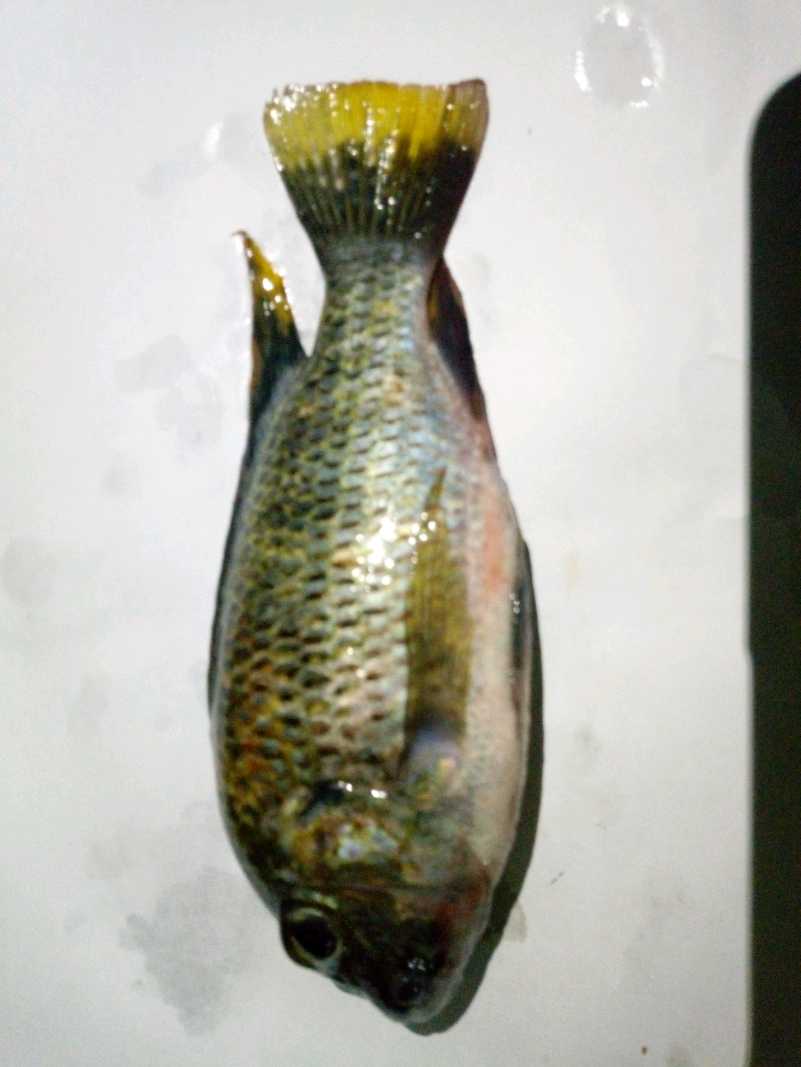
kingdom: Animalia
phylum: Chordata
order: Perciformes
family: Cichlidae
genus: Coptodon
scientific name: Coptodon rendalli
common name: Redbreast tilapia
